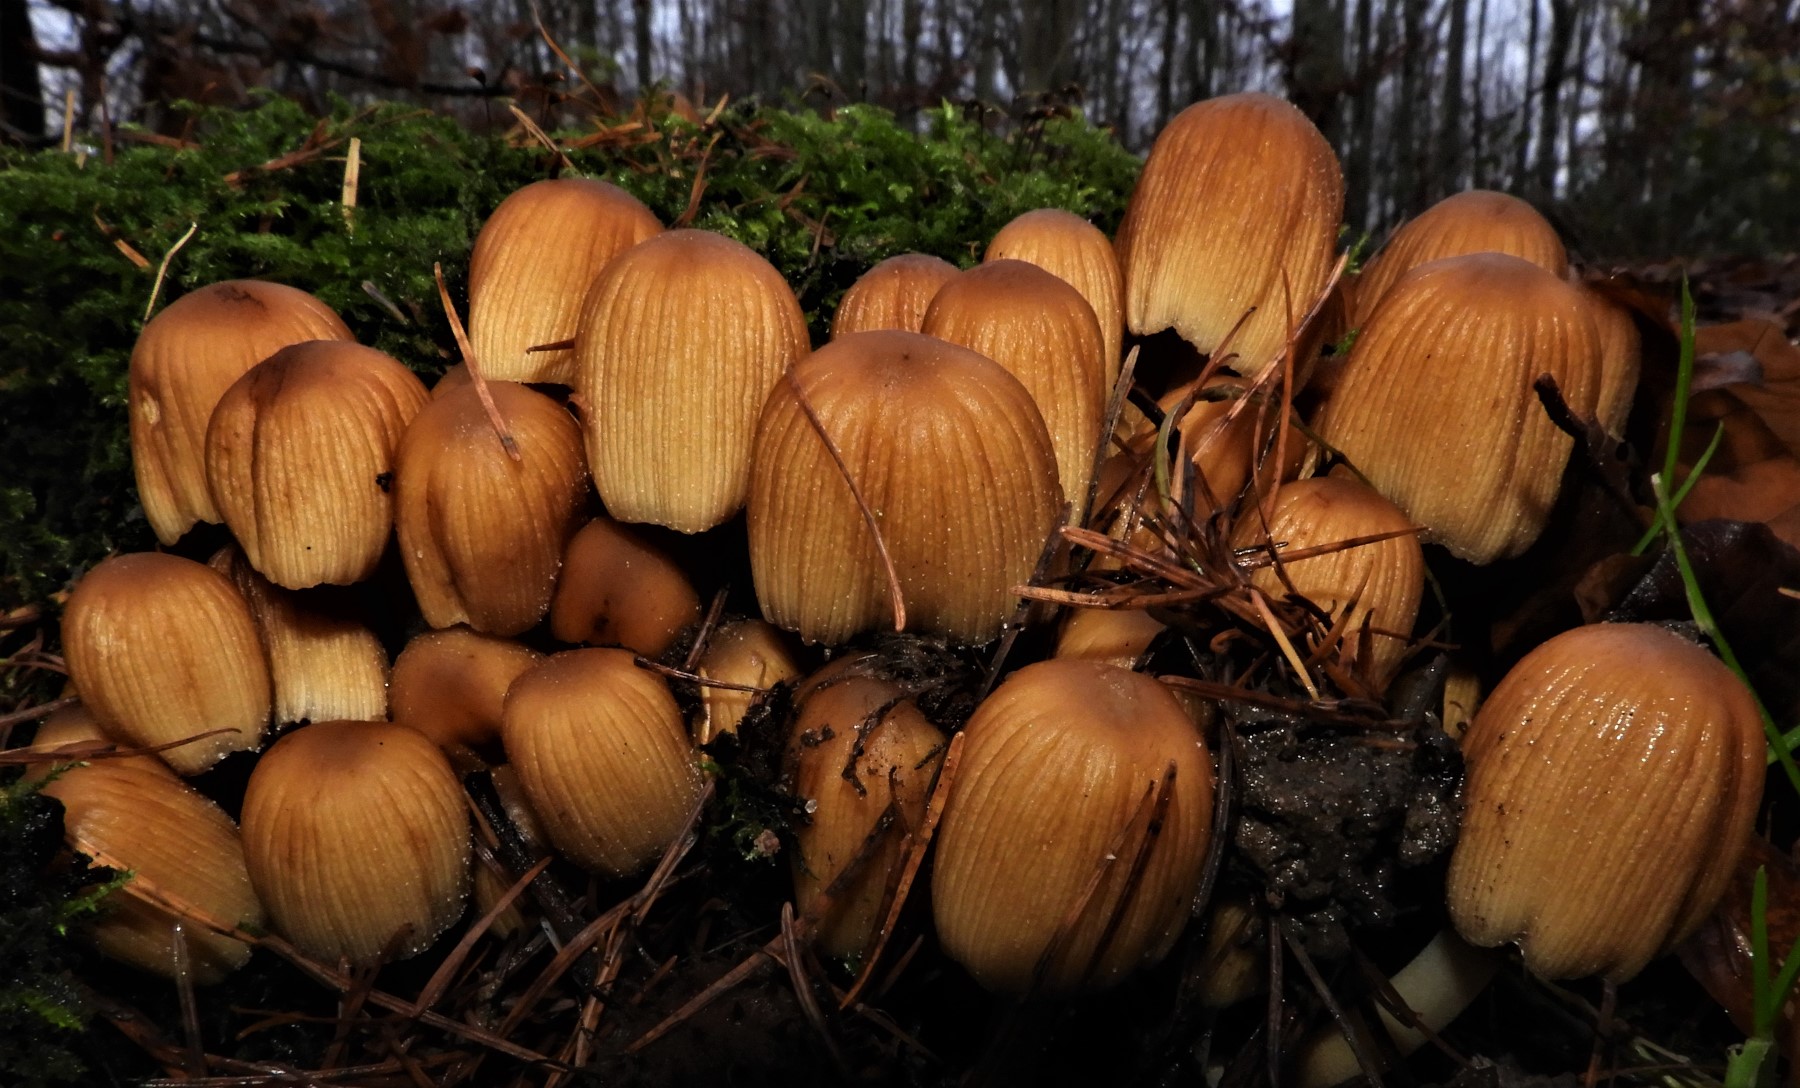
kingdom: Fungi
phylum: Basidiomycota
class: Agaricomycetes
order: Agaricales
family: Psathyrellaceae
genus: Coprinellus
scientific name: Coprinellus micaceus
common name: glimmer-blækhat
